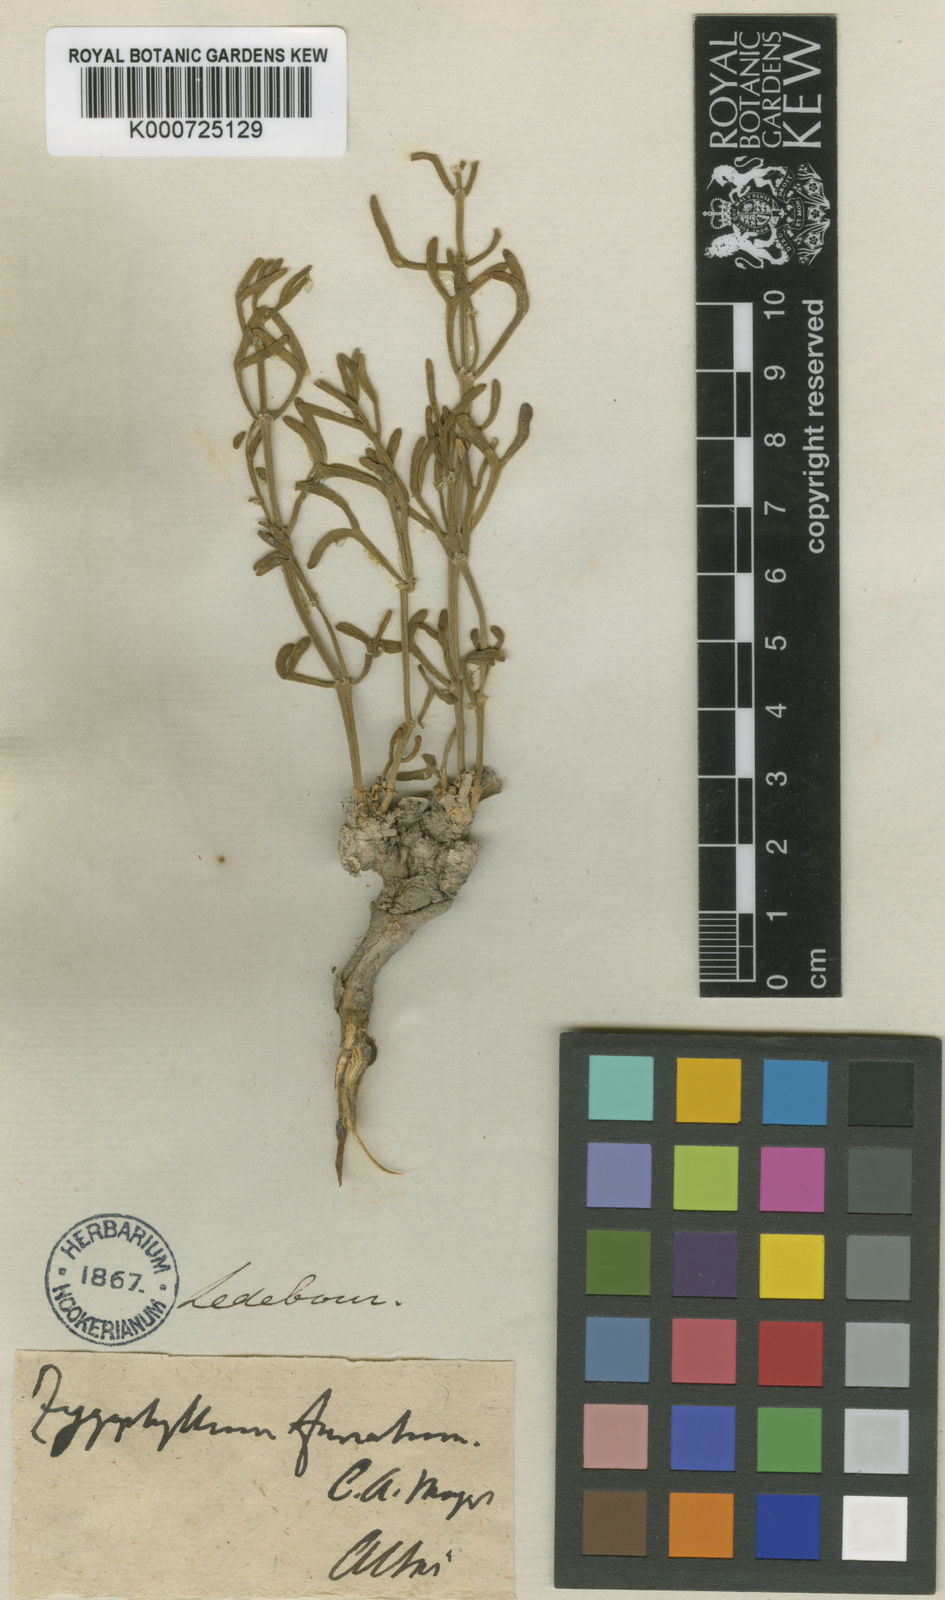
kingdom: Plantae
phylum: Tracheophyta
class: Magnoliopsida
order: Zygophyllales
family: Zygophyllaceae
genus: Zygophyllum
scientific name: Zygophyllum furcatum
